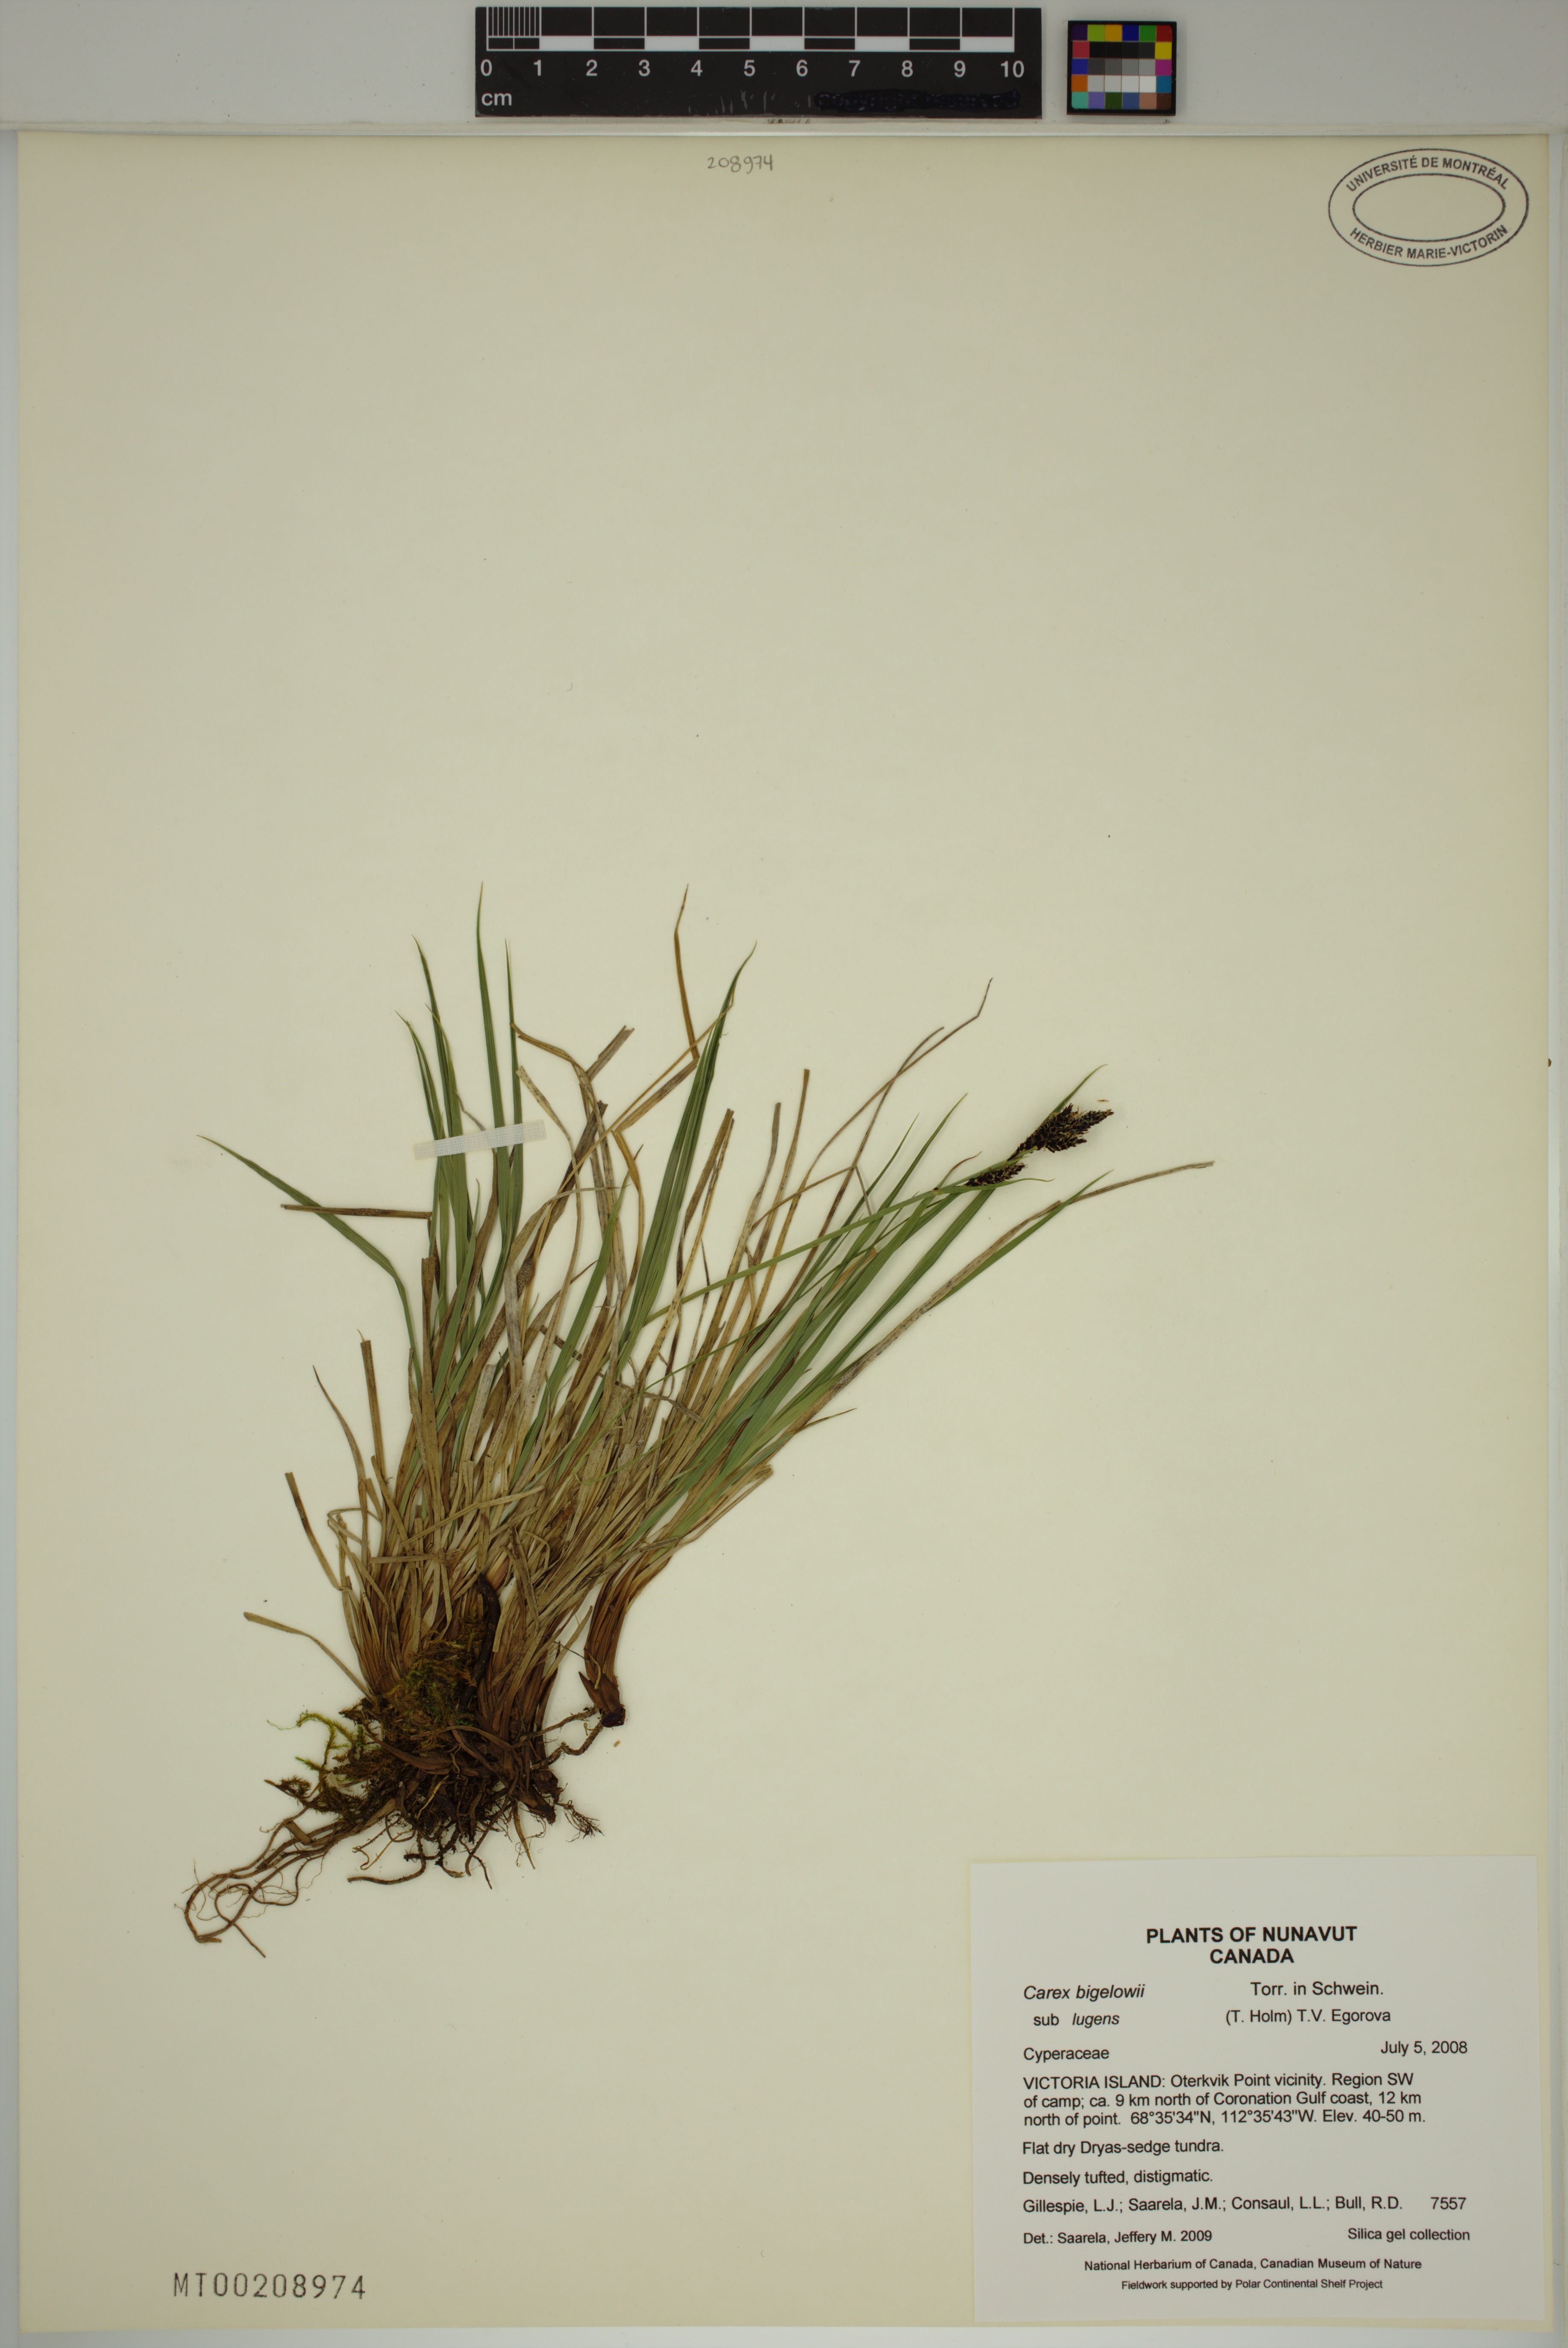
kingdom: Plantae
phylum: Tracheophyta
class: Liliopsida
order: Poales
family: Cyperaceae
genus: Carex
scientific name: Carex bigelowii
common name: Stiff sedge
